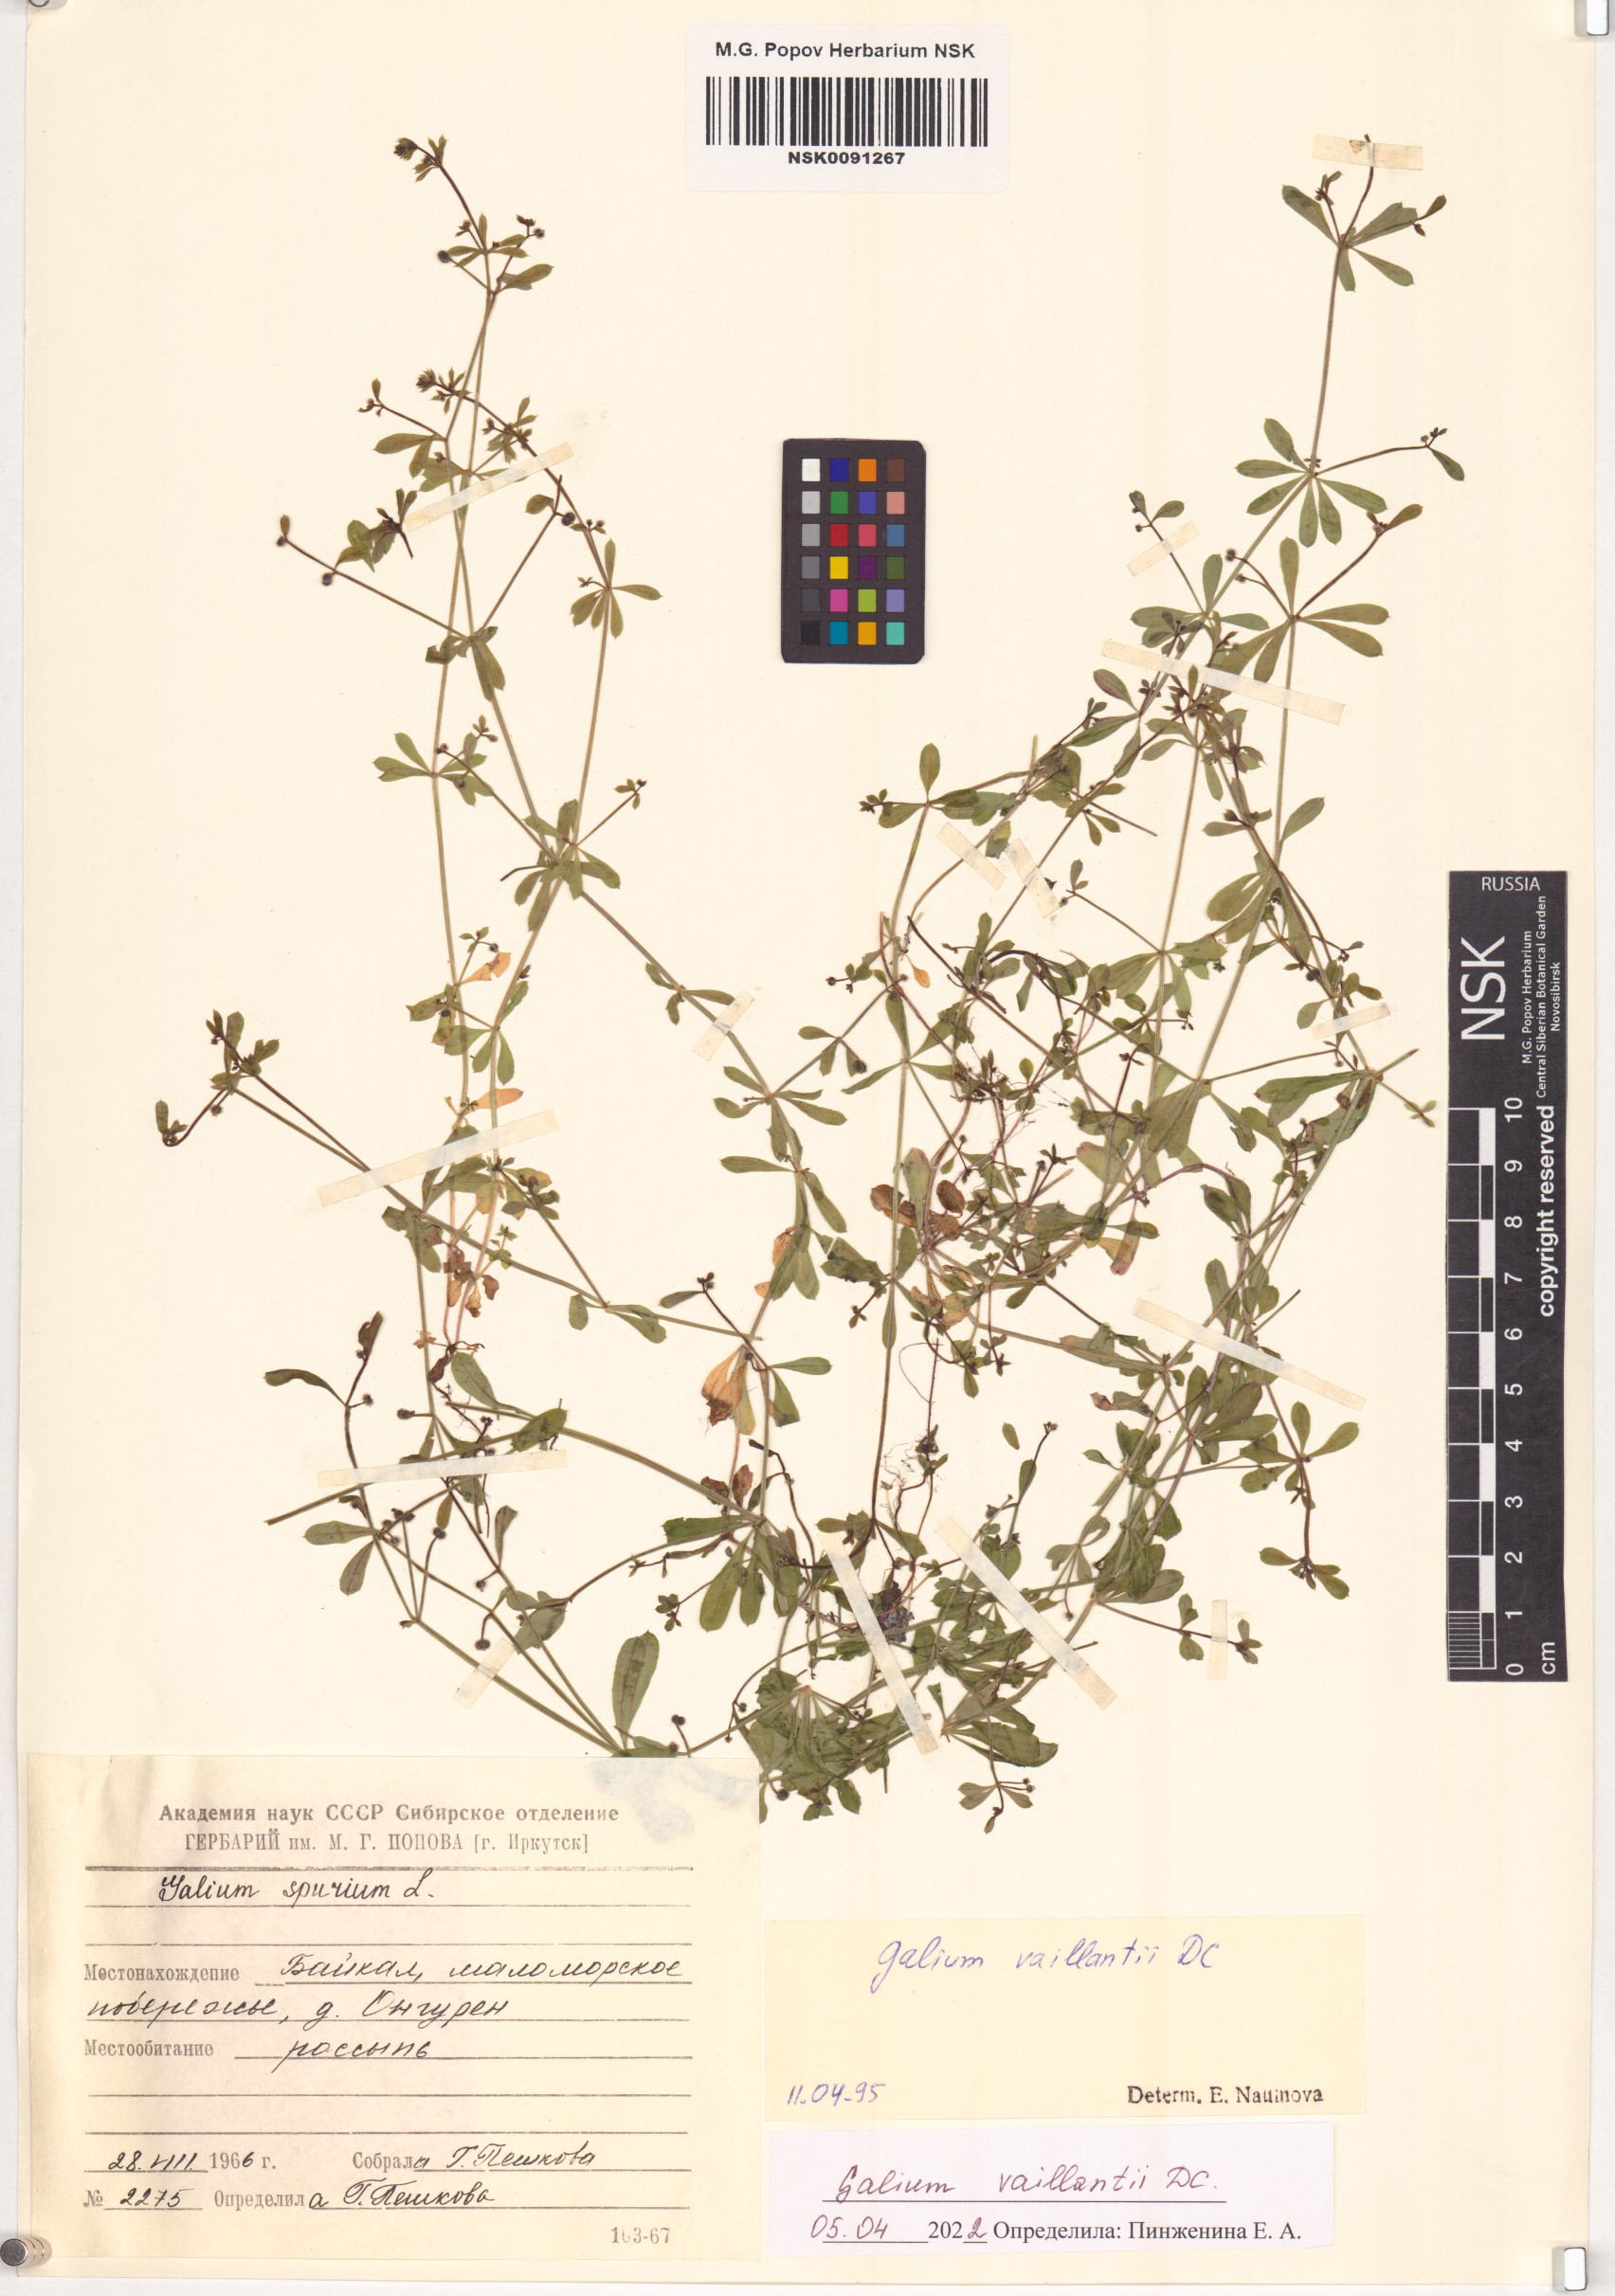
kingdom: Plantae
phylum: Tracheophyta
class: Magnoliopsida
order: Gentianales
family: Rubiaceae
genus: Galium
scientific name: Galium spurium
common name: False cleavers
